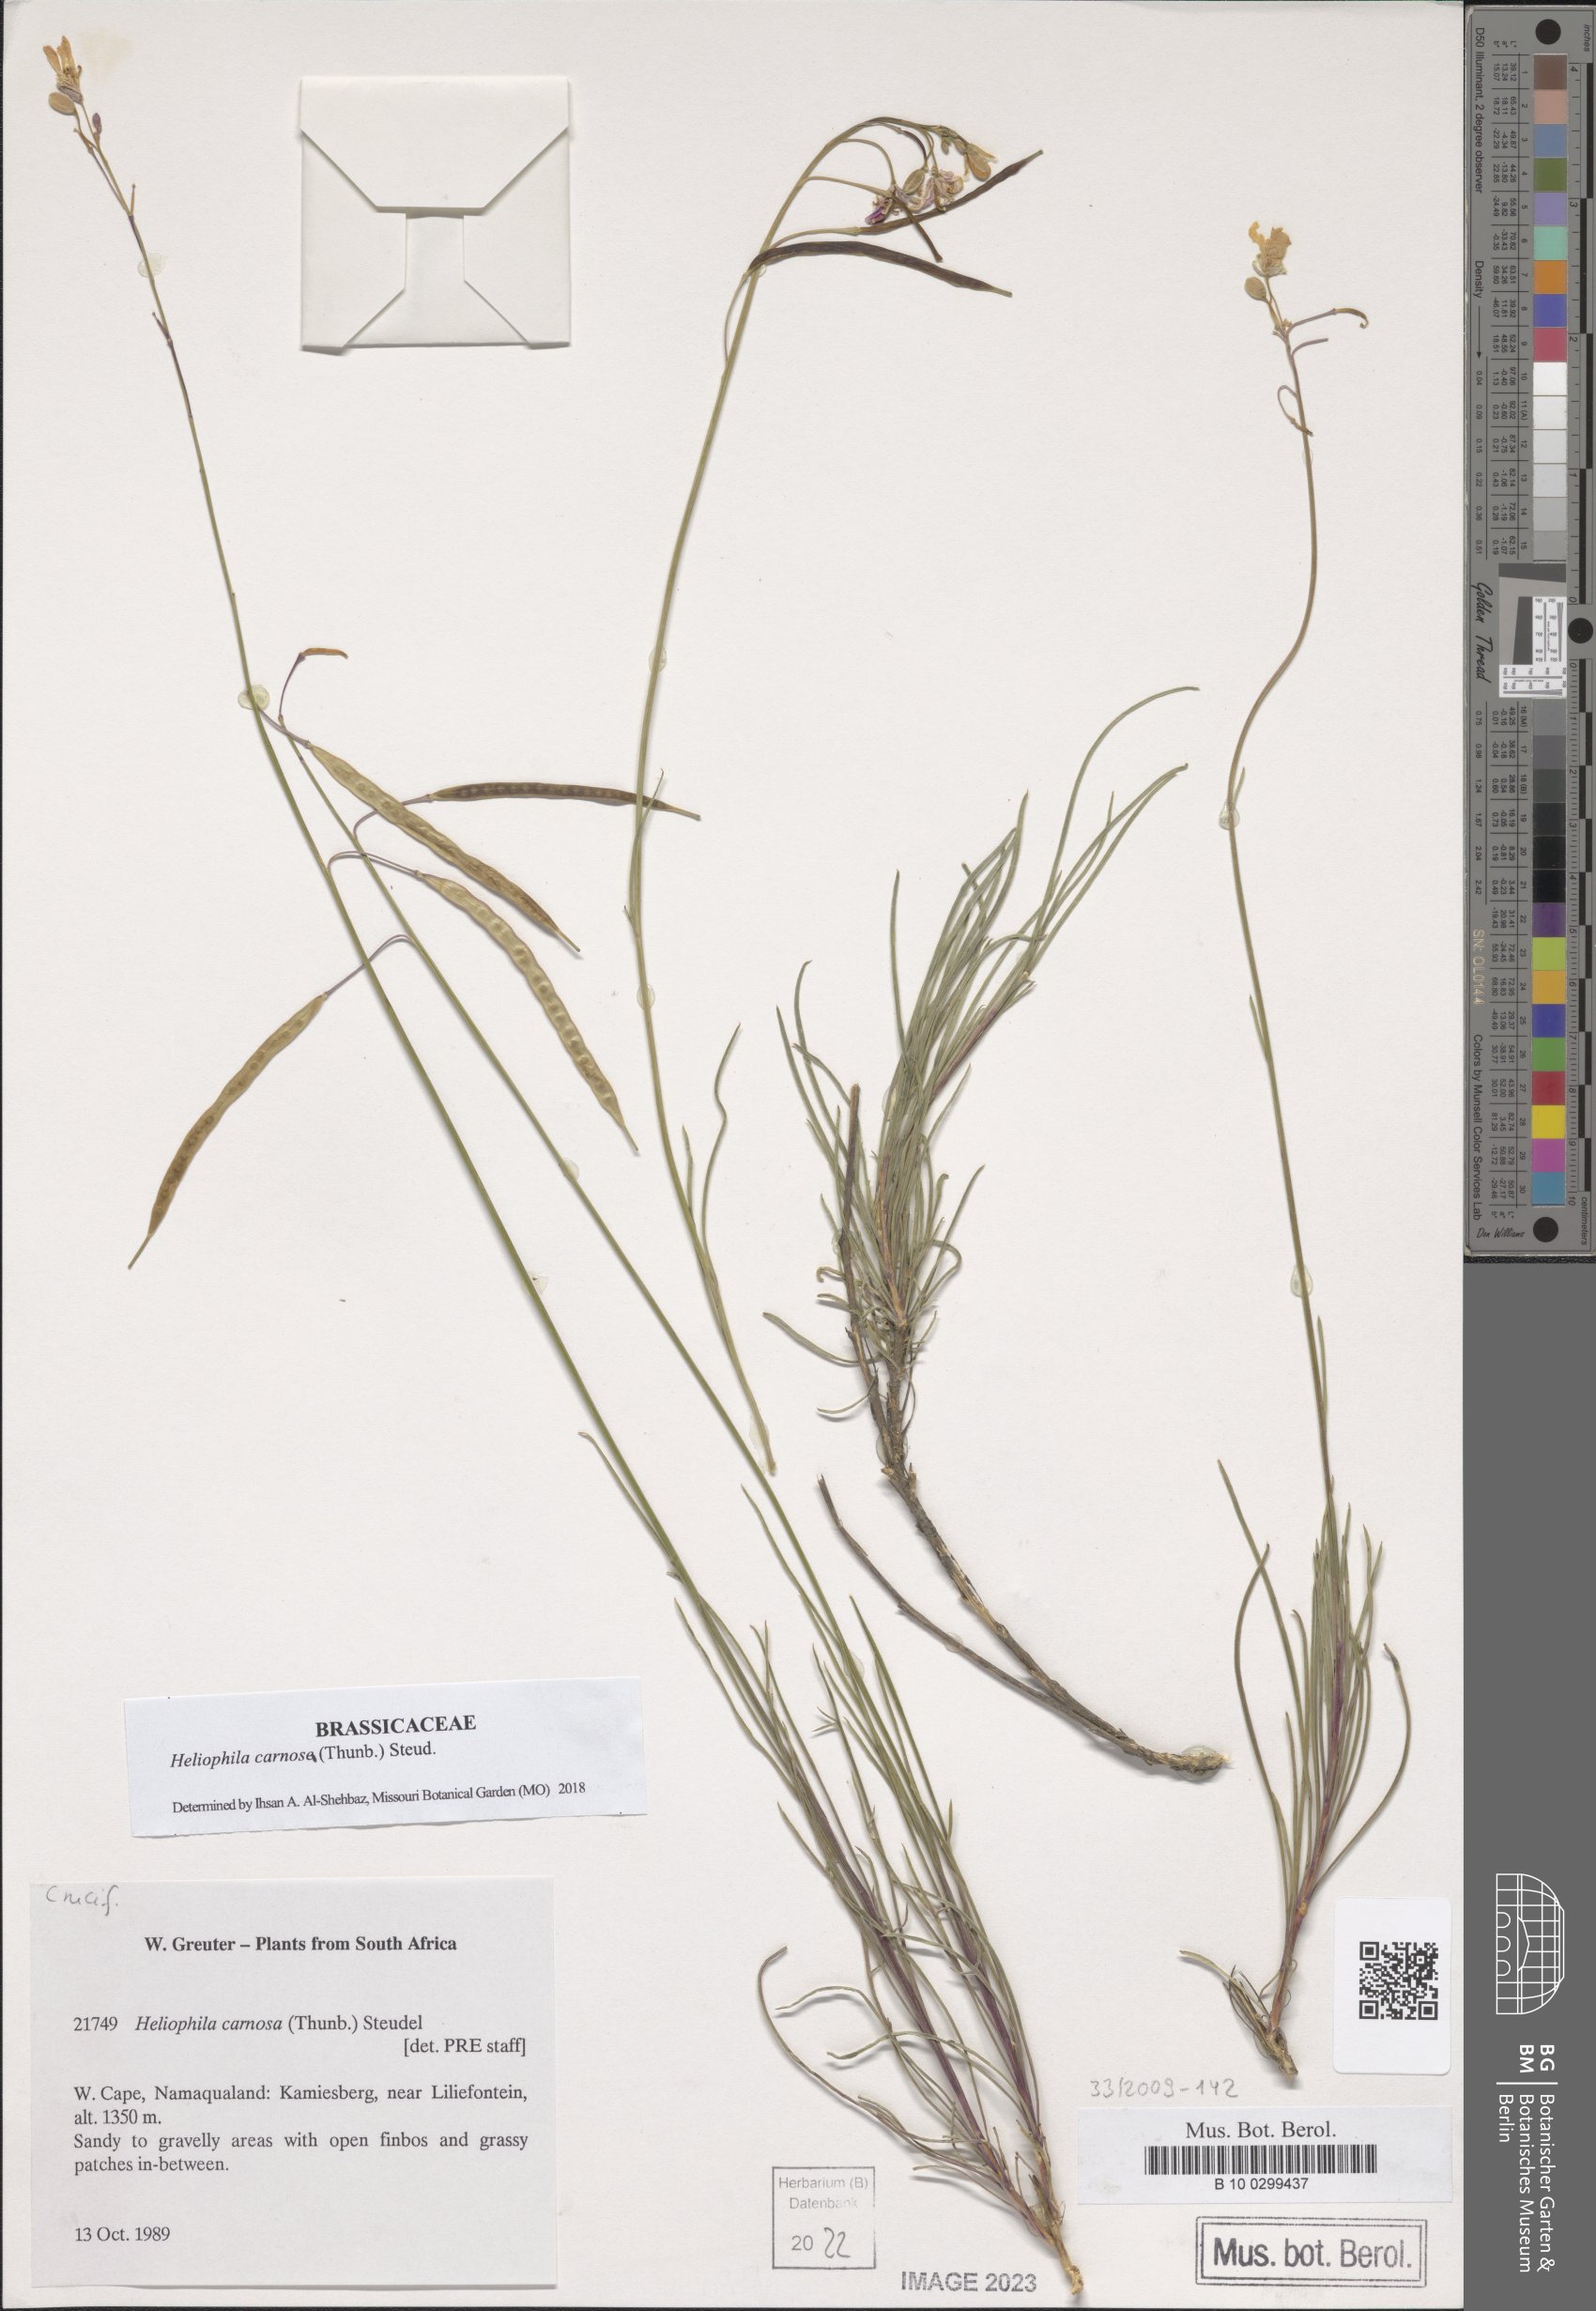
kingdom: Plantae
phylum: Tracheophyta
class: Magnoliopsida
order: Brassicales
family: Brassicaceae
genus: Heliophila
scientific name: Heliophila carnosa
